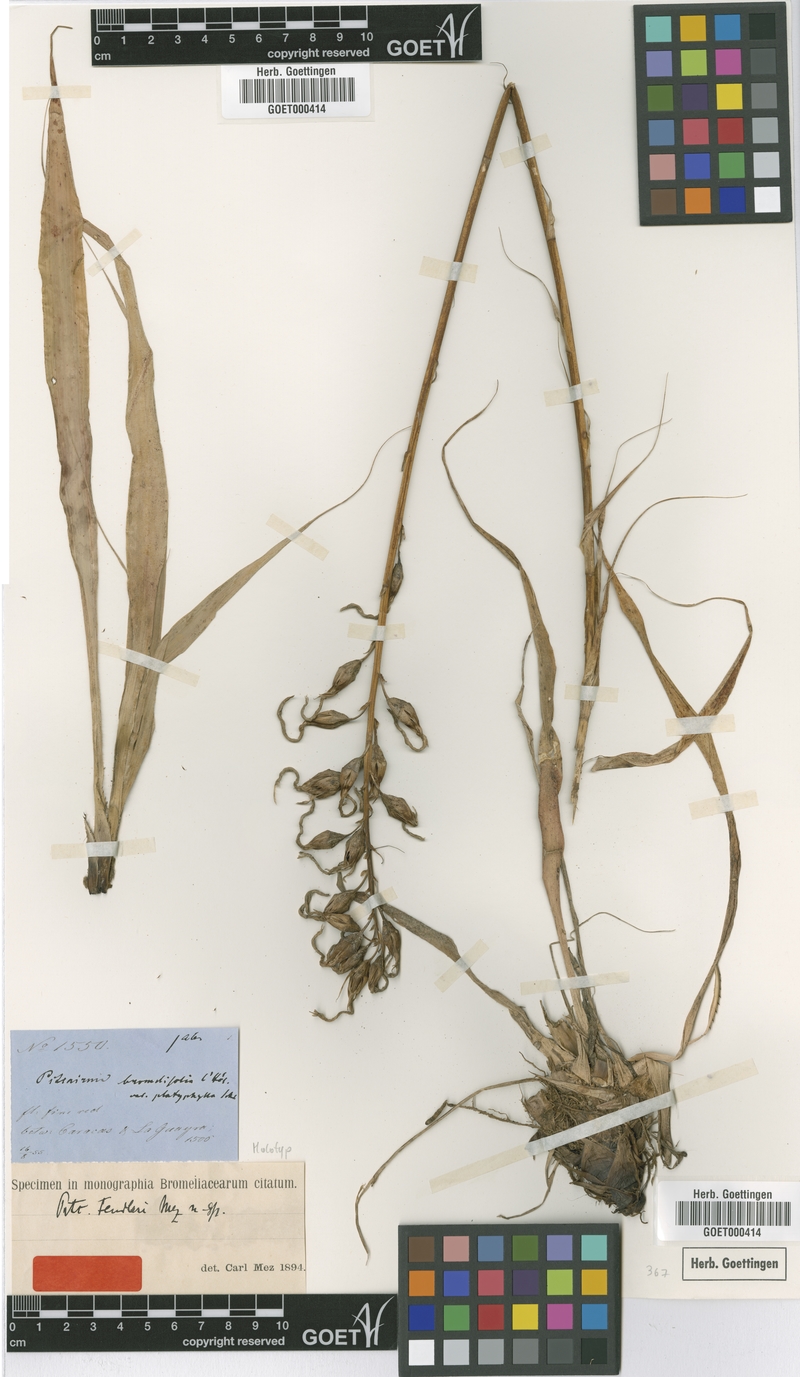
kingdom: Plantae
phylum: Tracheophyta
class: Liliopsida
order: Poales
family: Bromeliaceae
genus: Pitcairnia
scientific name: Pitcairnia fendleri
